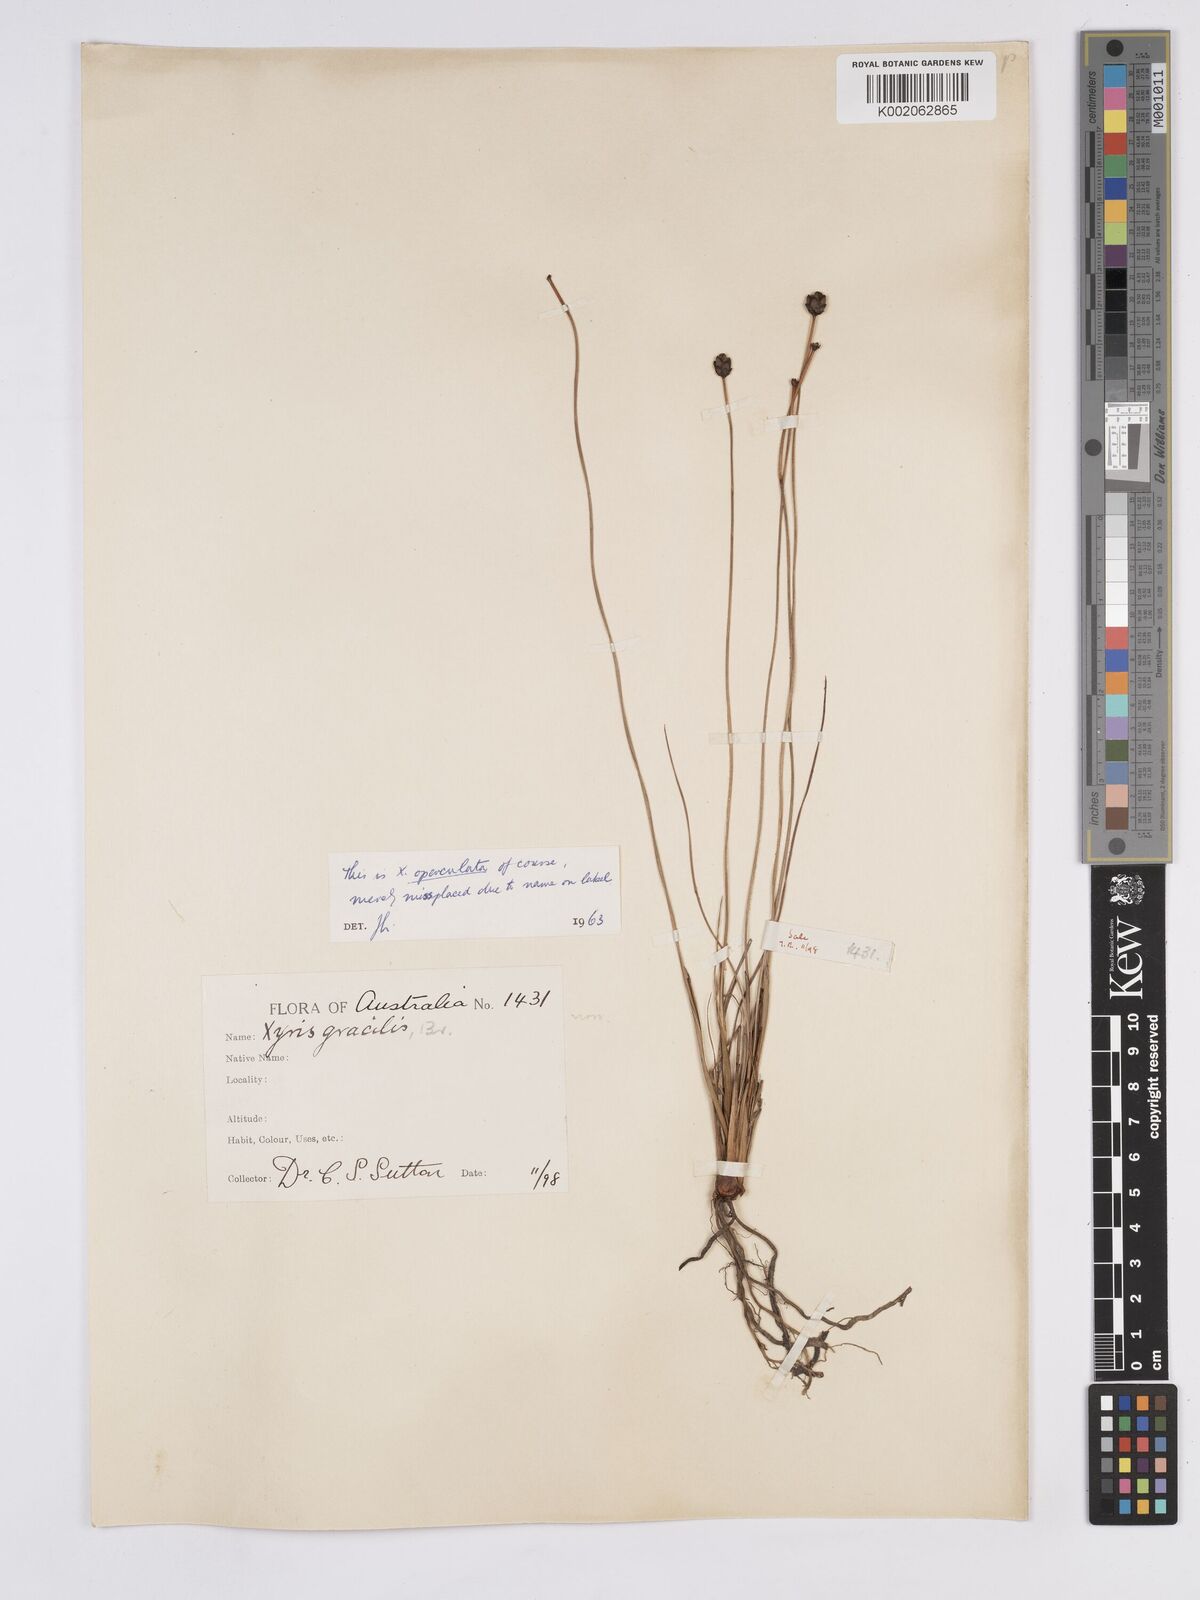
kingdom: Plantae
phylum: Tracheophyta
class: Liliopsida
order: Poales
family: Xyridaceae
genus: Xyris
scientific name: Xyris operculata
